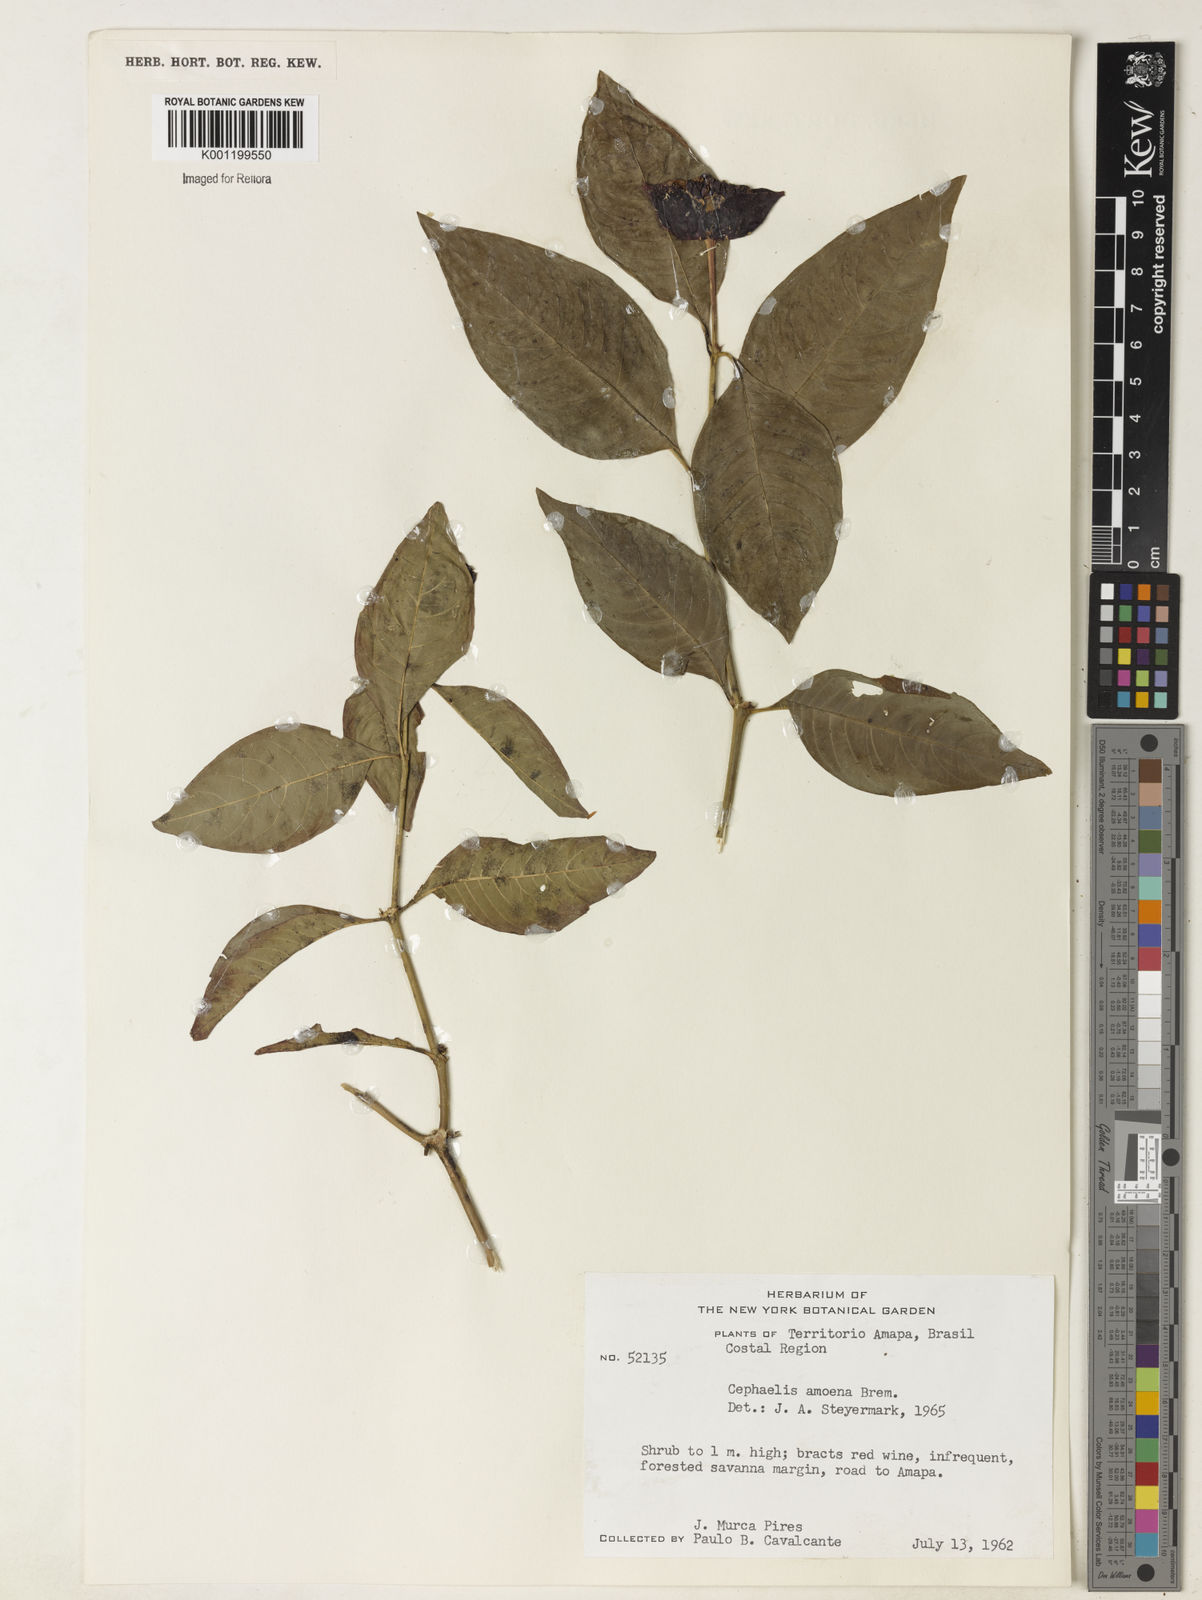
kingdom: Plantae
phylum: Tracheophyta
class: Magnoliopsida
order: Gentianales
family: Rubiaceae
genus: Psychotria
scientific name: Psychotria
